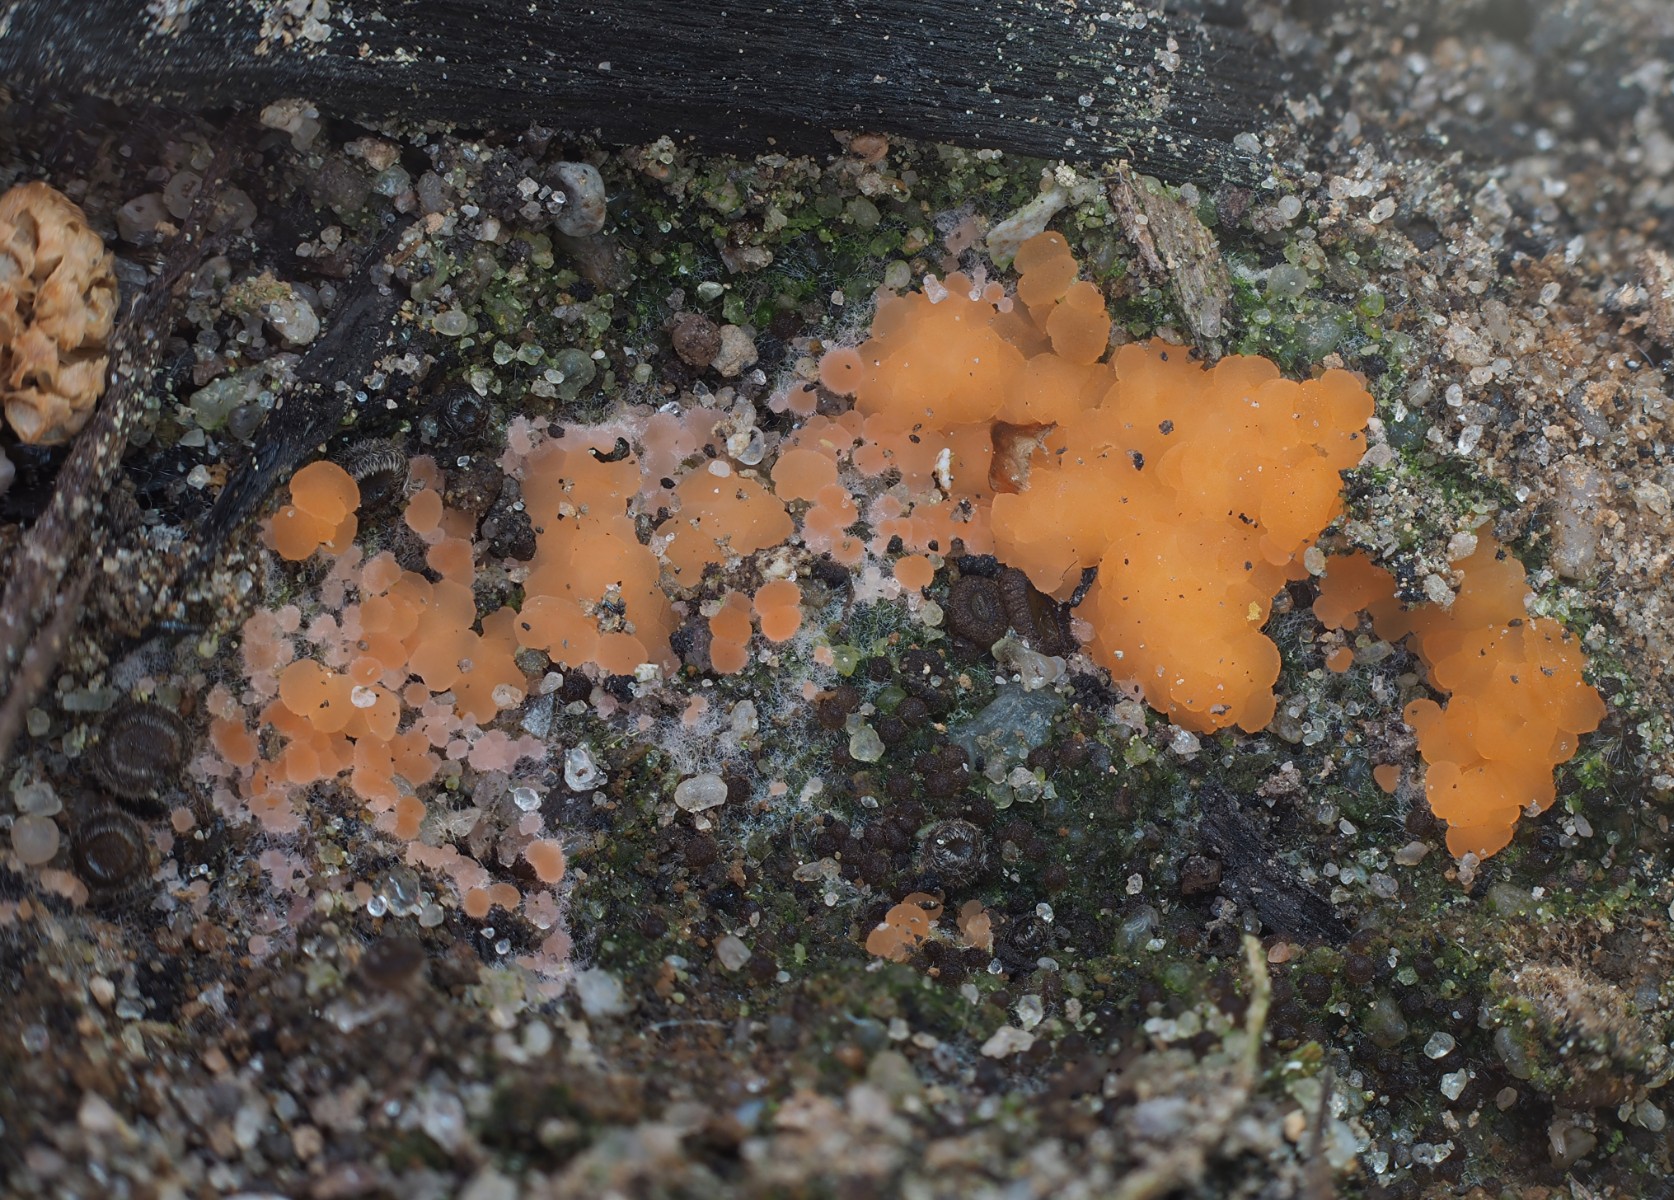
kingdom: Fungi
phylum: Ascomycota
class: Pezizomycetes
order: Pezizales
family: Pyronemataceae
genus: Pyronema
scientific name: Pyronema omphalodes
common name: glat askebæger
